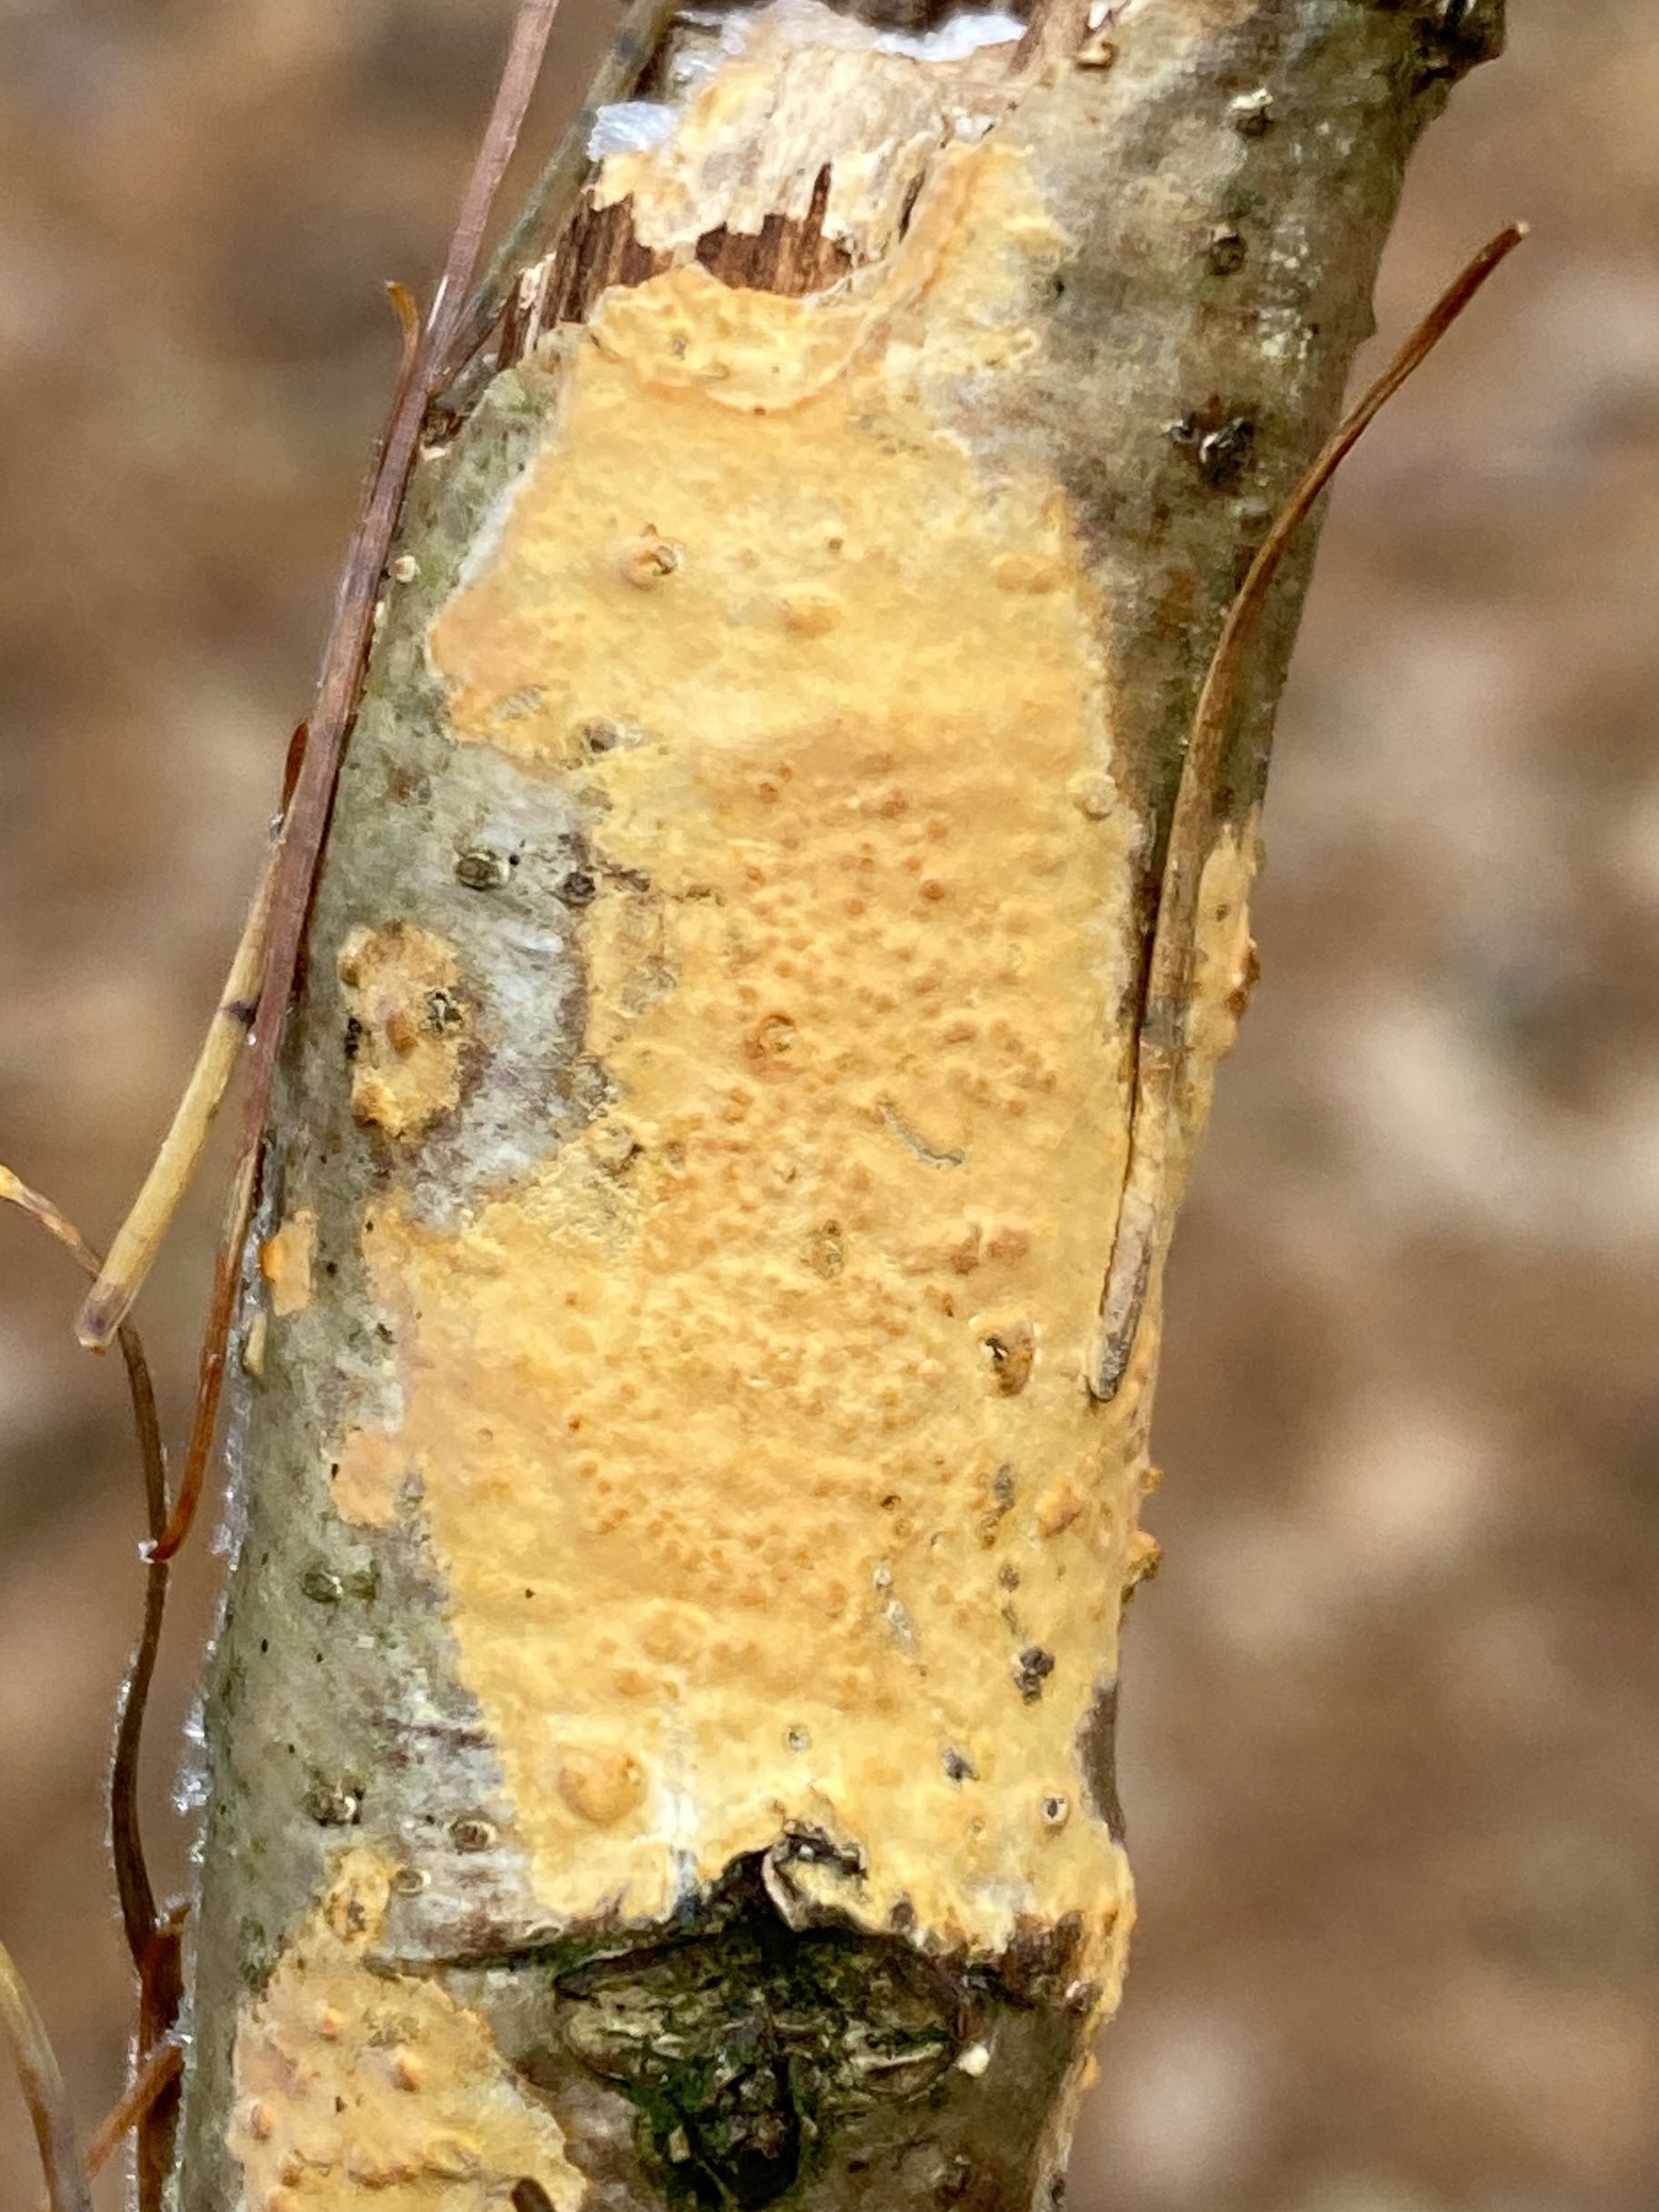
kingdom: Fungi
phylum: Basidiomycota
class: Agaricomycetes
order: Russulales
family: Peniophoraceae
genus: Peniophora
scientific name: Peniophora incarnata
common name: laksefarvet voksskind
